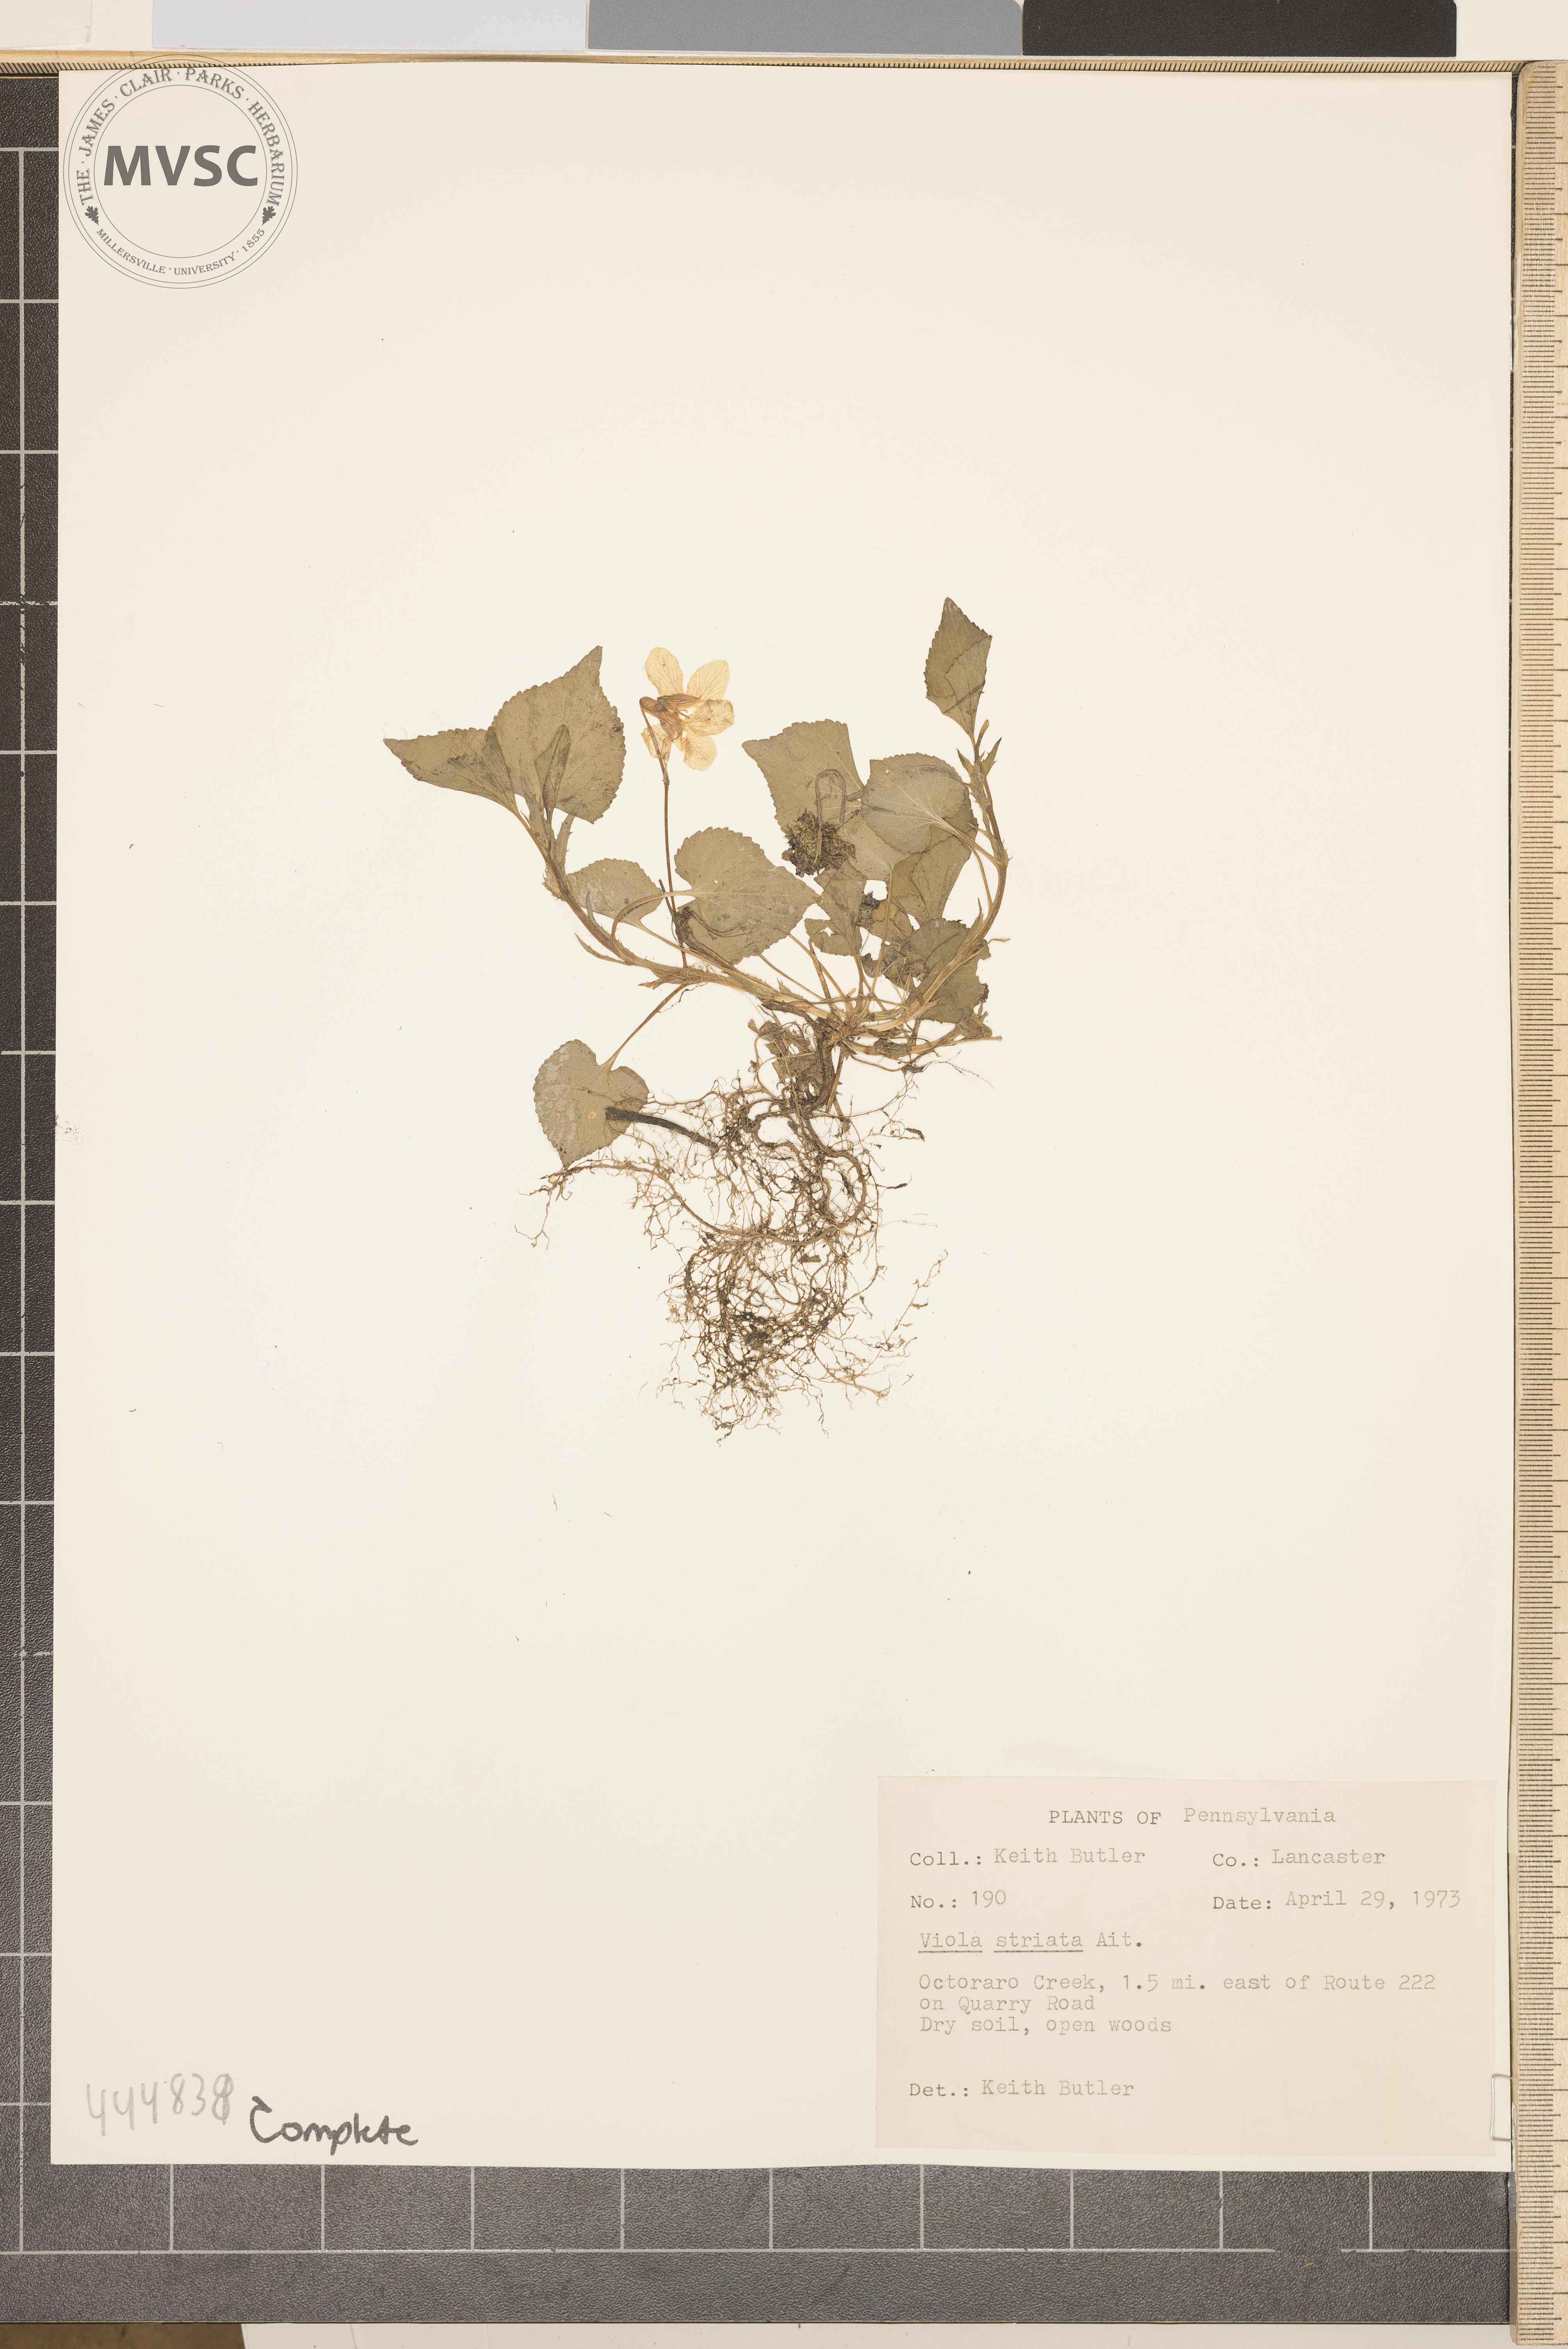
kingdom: Plantae
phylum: Tracheophyta
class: Magnoliopsida
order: Malpighiales
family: Violaceae
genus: Viola
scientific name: Viola striata
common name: Cream violet
